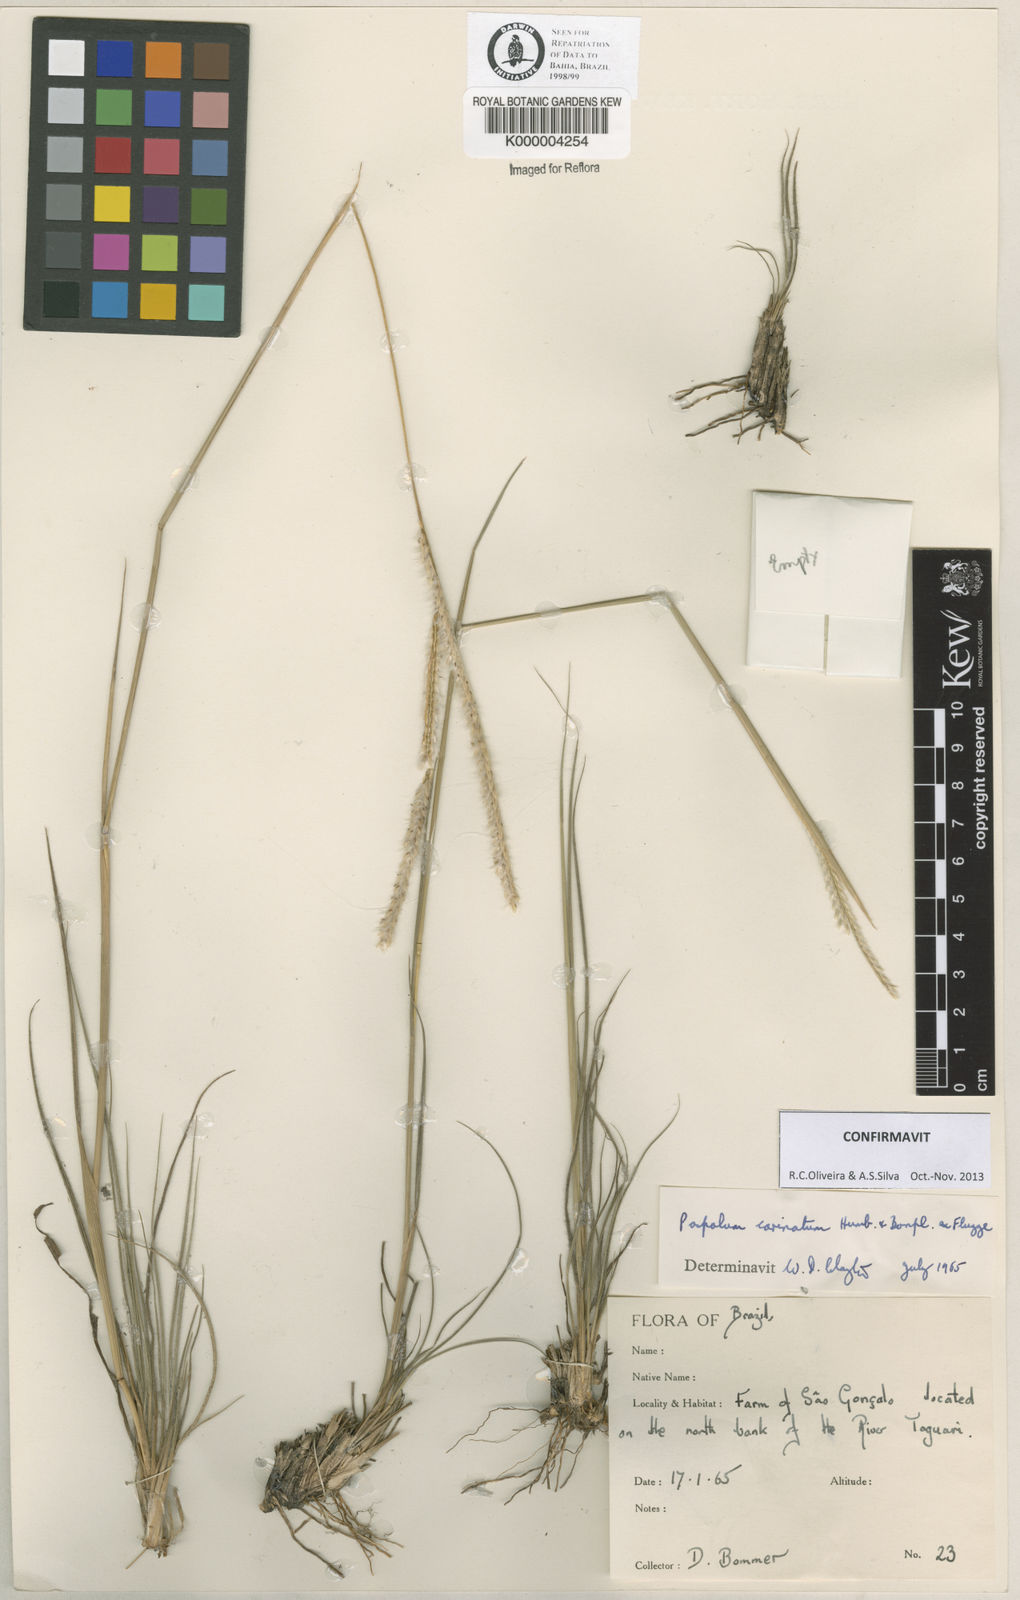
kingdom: Plantae
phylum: Tracheophyta
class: Liliopsida
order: Poales
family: Poaceae
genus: Paspalum
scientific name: Paspalum carinatum
